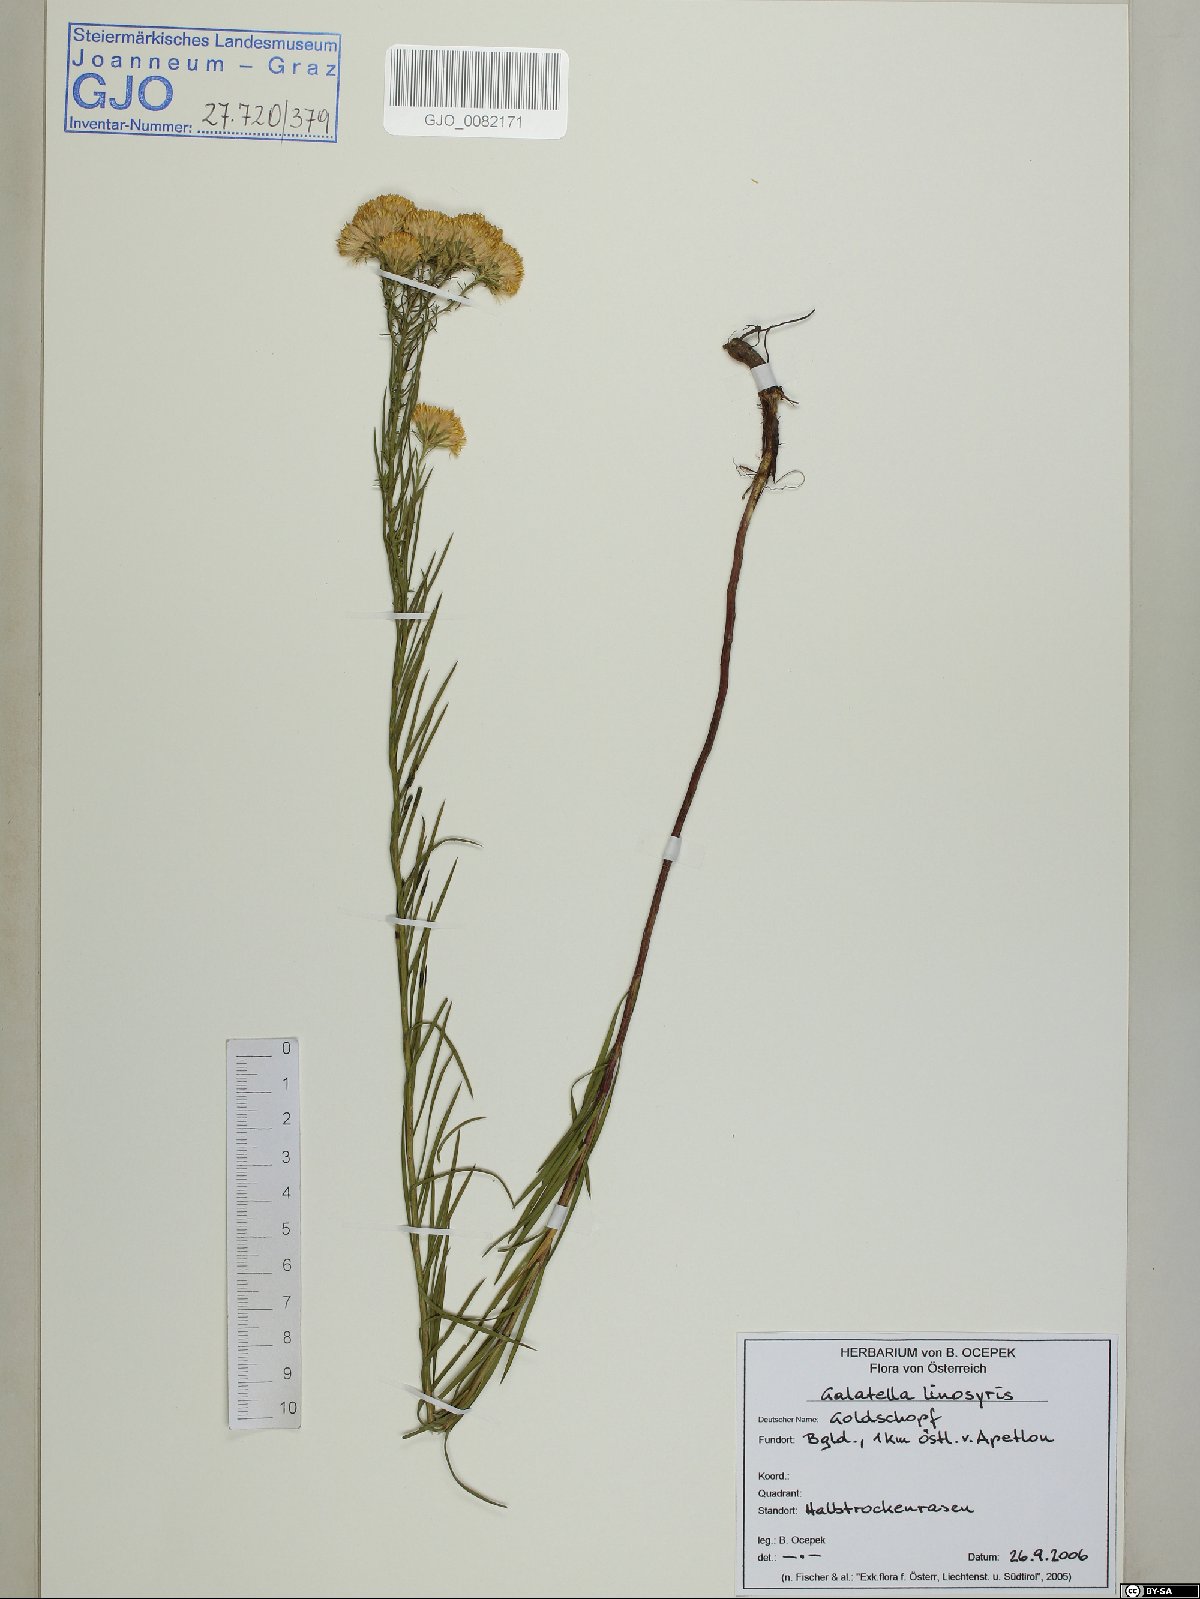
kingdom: Plantae
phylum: Tracheophyta
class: Magnoliopsida
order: Asterales
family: Asteraceae
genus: Galatella
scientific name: Galatella linosyris
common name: Goldilocks aster
